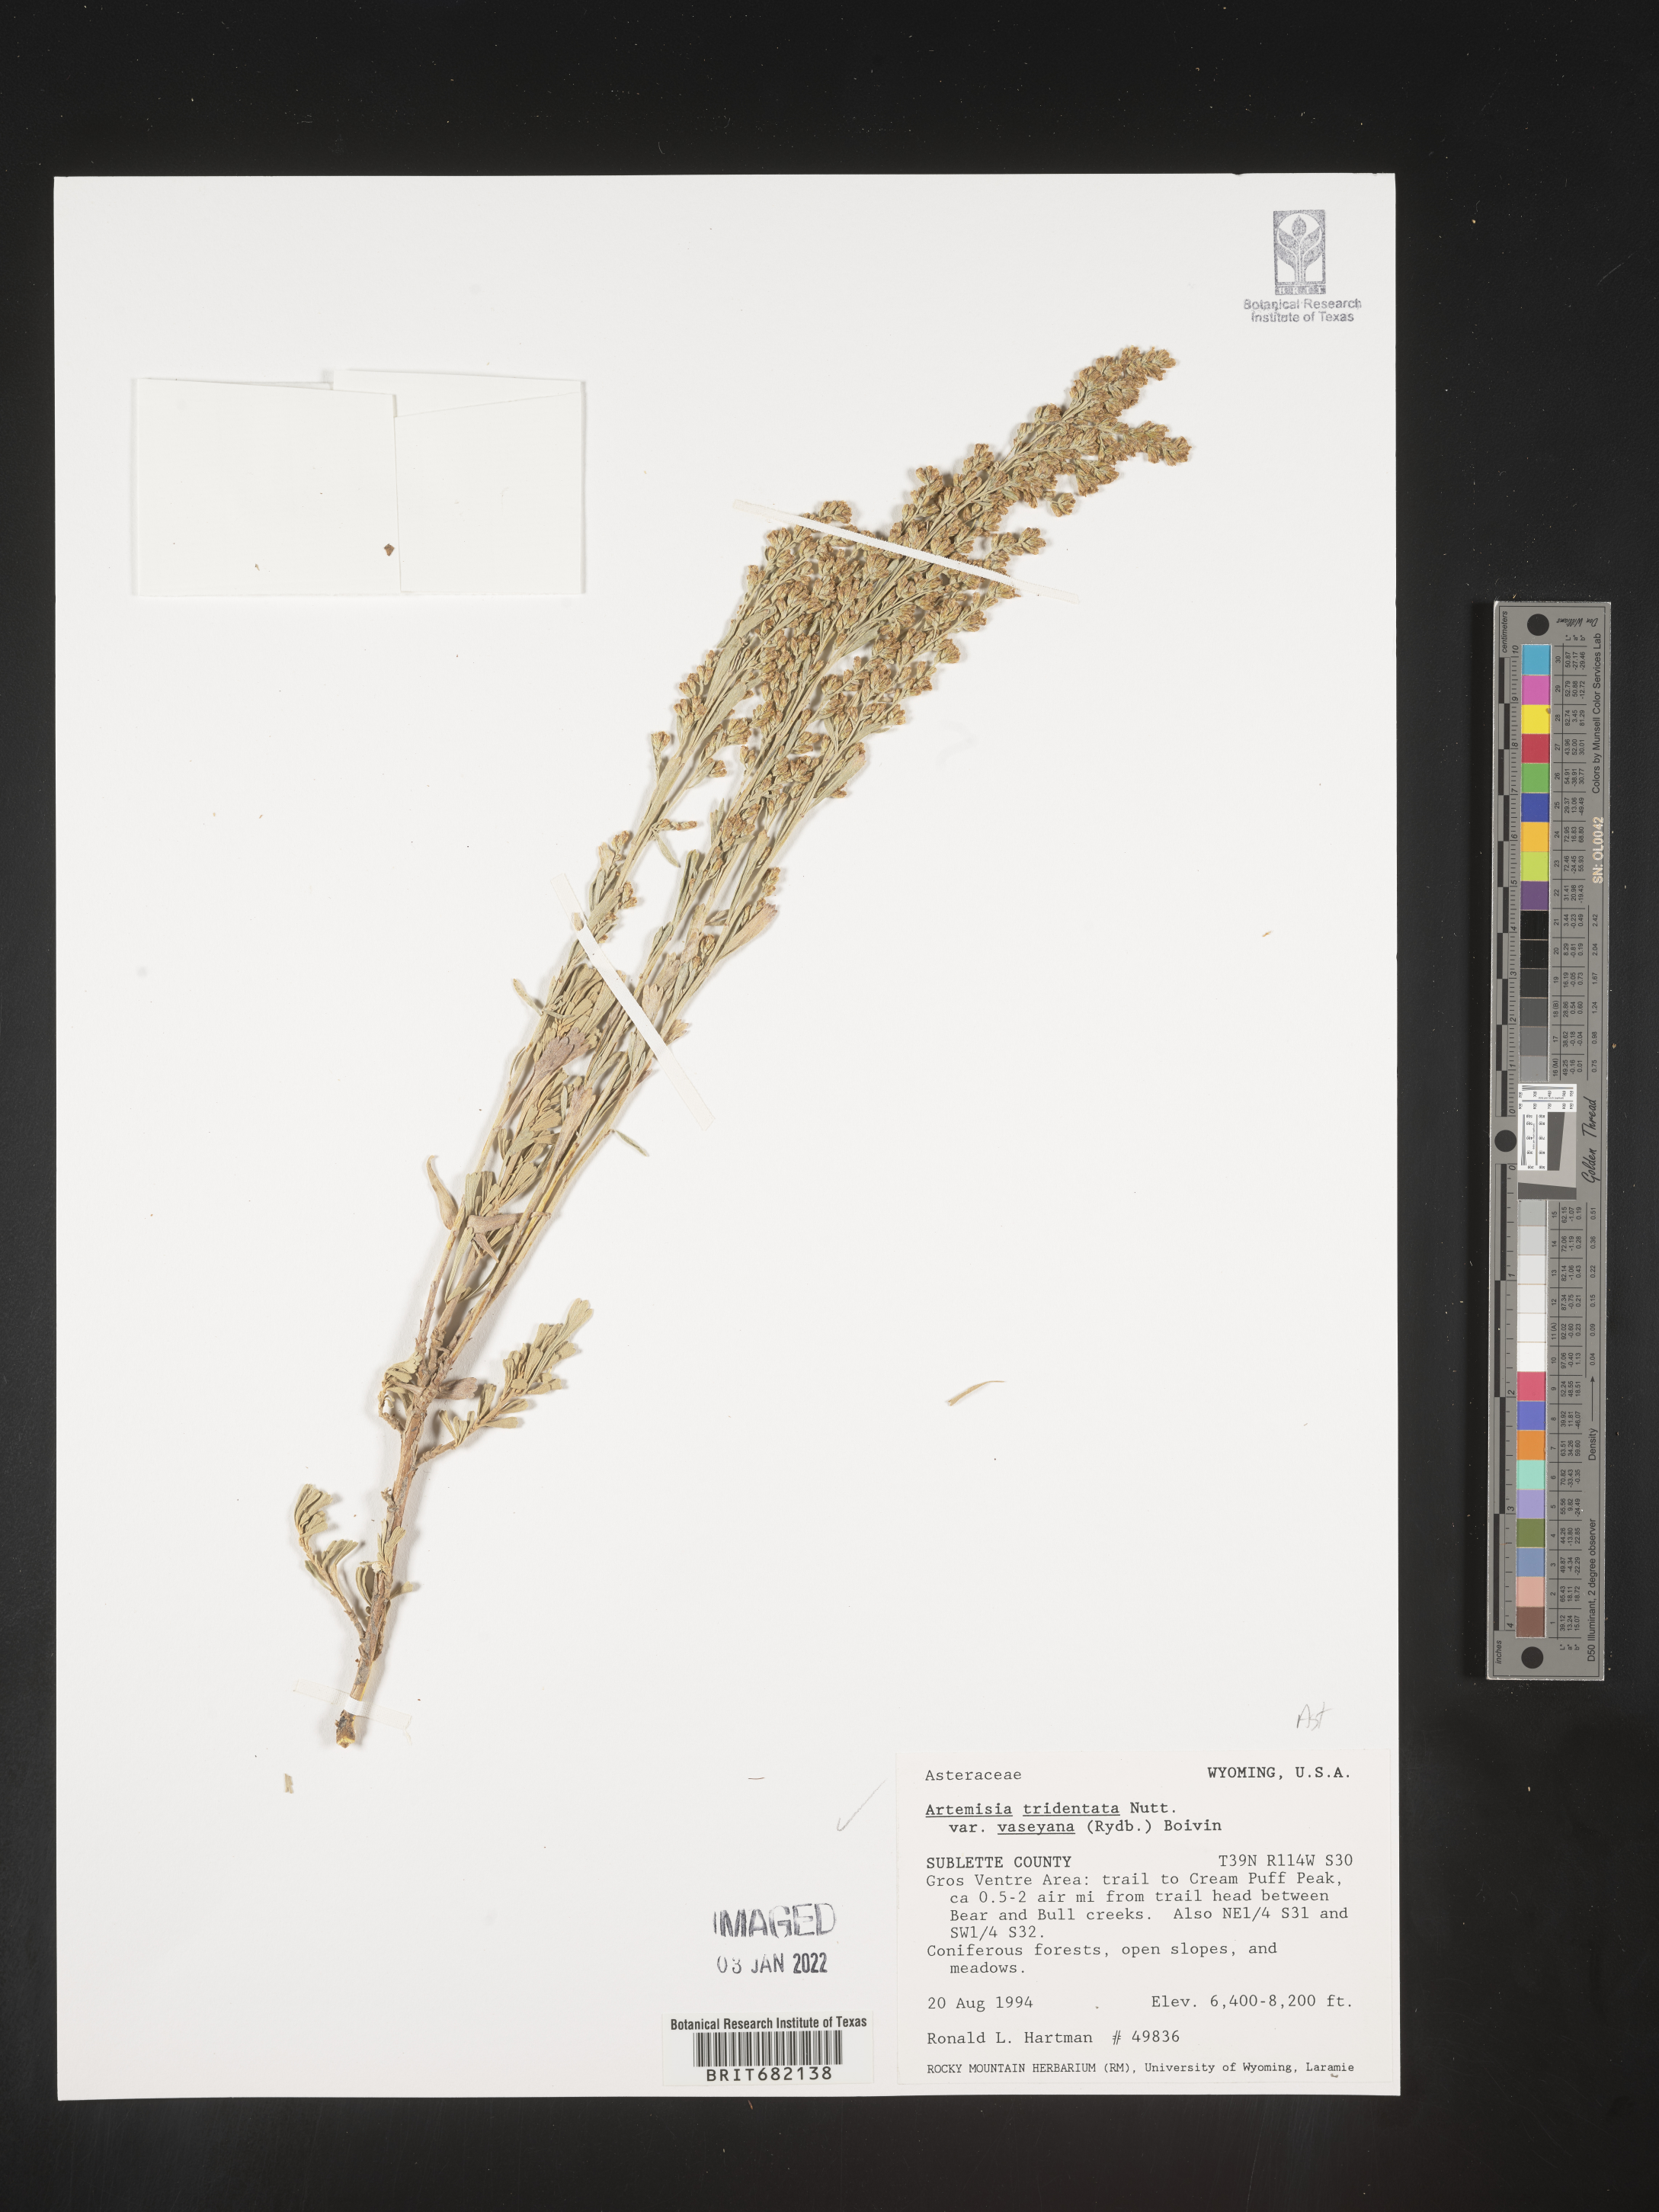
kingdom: Plantae
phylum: Tracheophyta
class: Magnoliopsida
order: Asterales
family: Asteraceae
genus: Artemisia
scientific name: Artemisia tridentata
